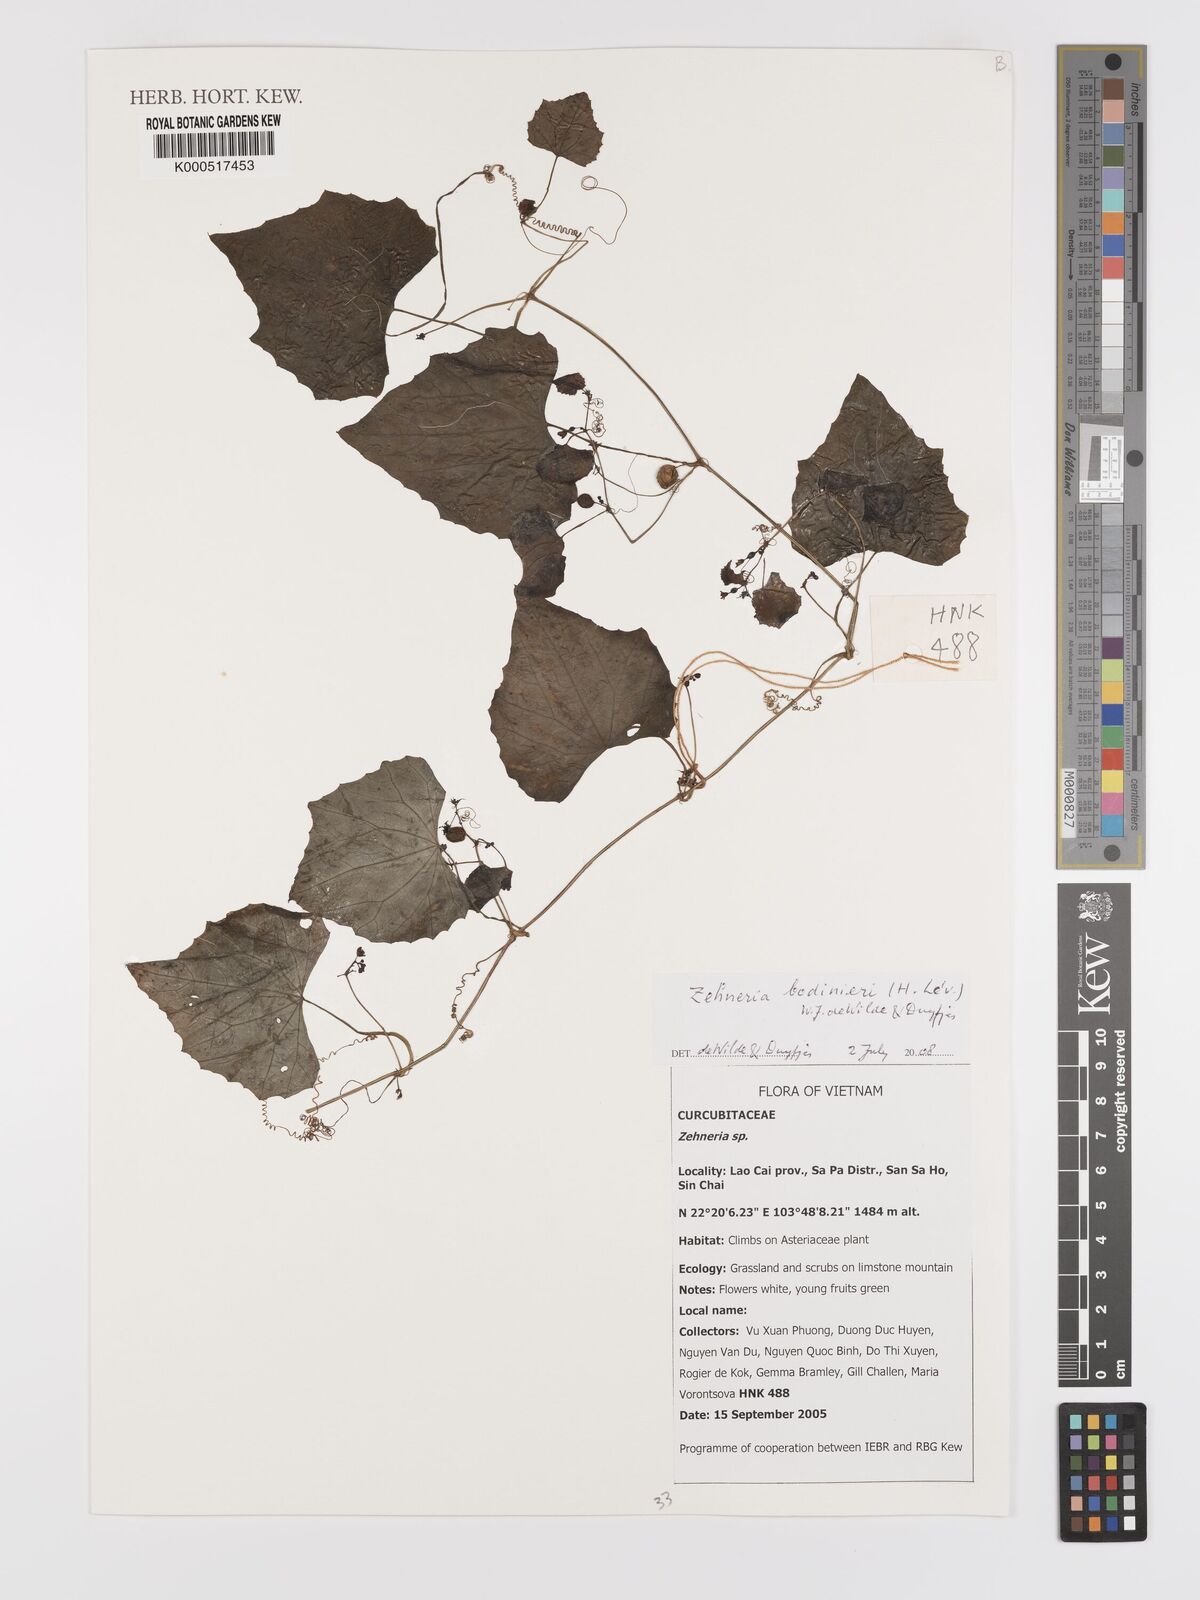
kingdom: Plantae
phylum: Tracheophyta
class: Magnoliopsida
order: Cucurbitales
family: Cucurbitaceae
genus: Zehneria
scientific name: Zehneria
